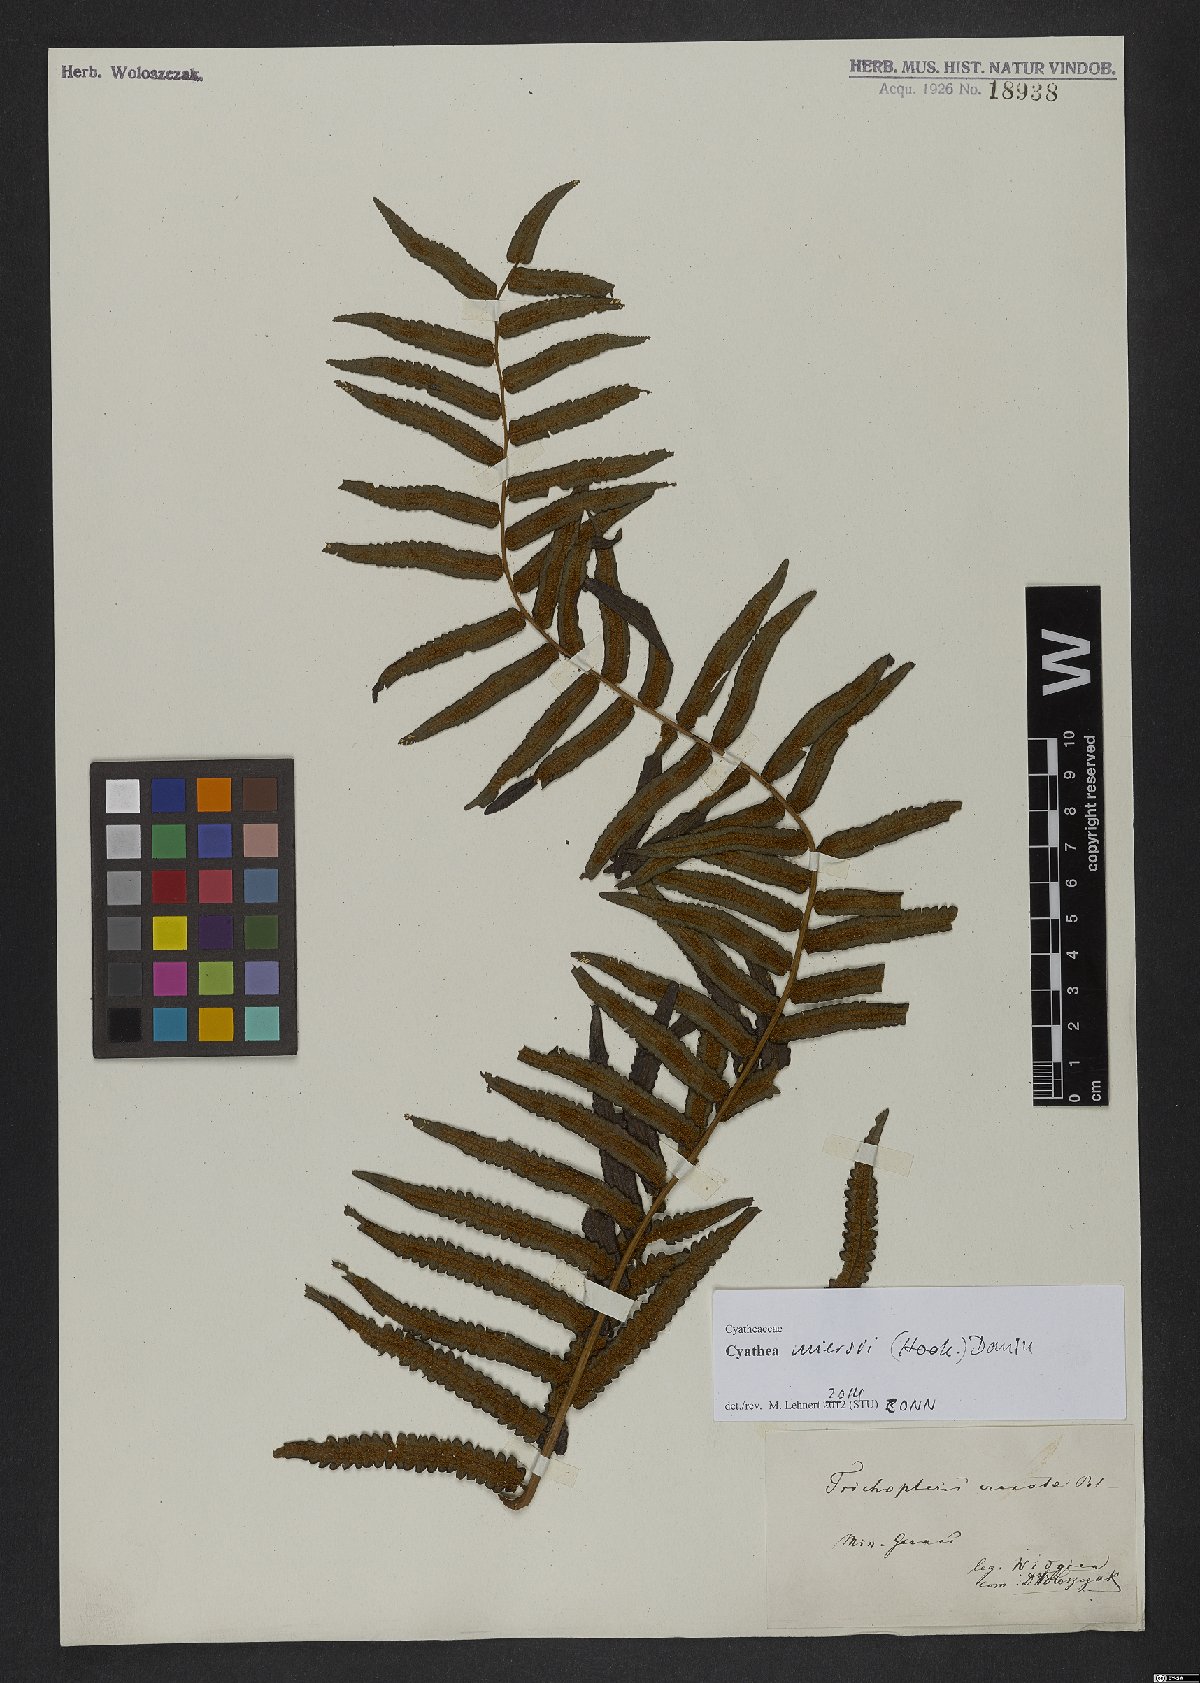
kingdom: Plantae
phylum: Tracheophyta
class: Polypodiopsida
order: Cyatheales
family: Cyatheaceae
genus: Cyathea
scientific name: Cyathea miersii
